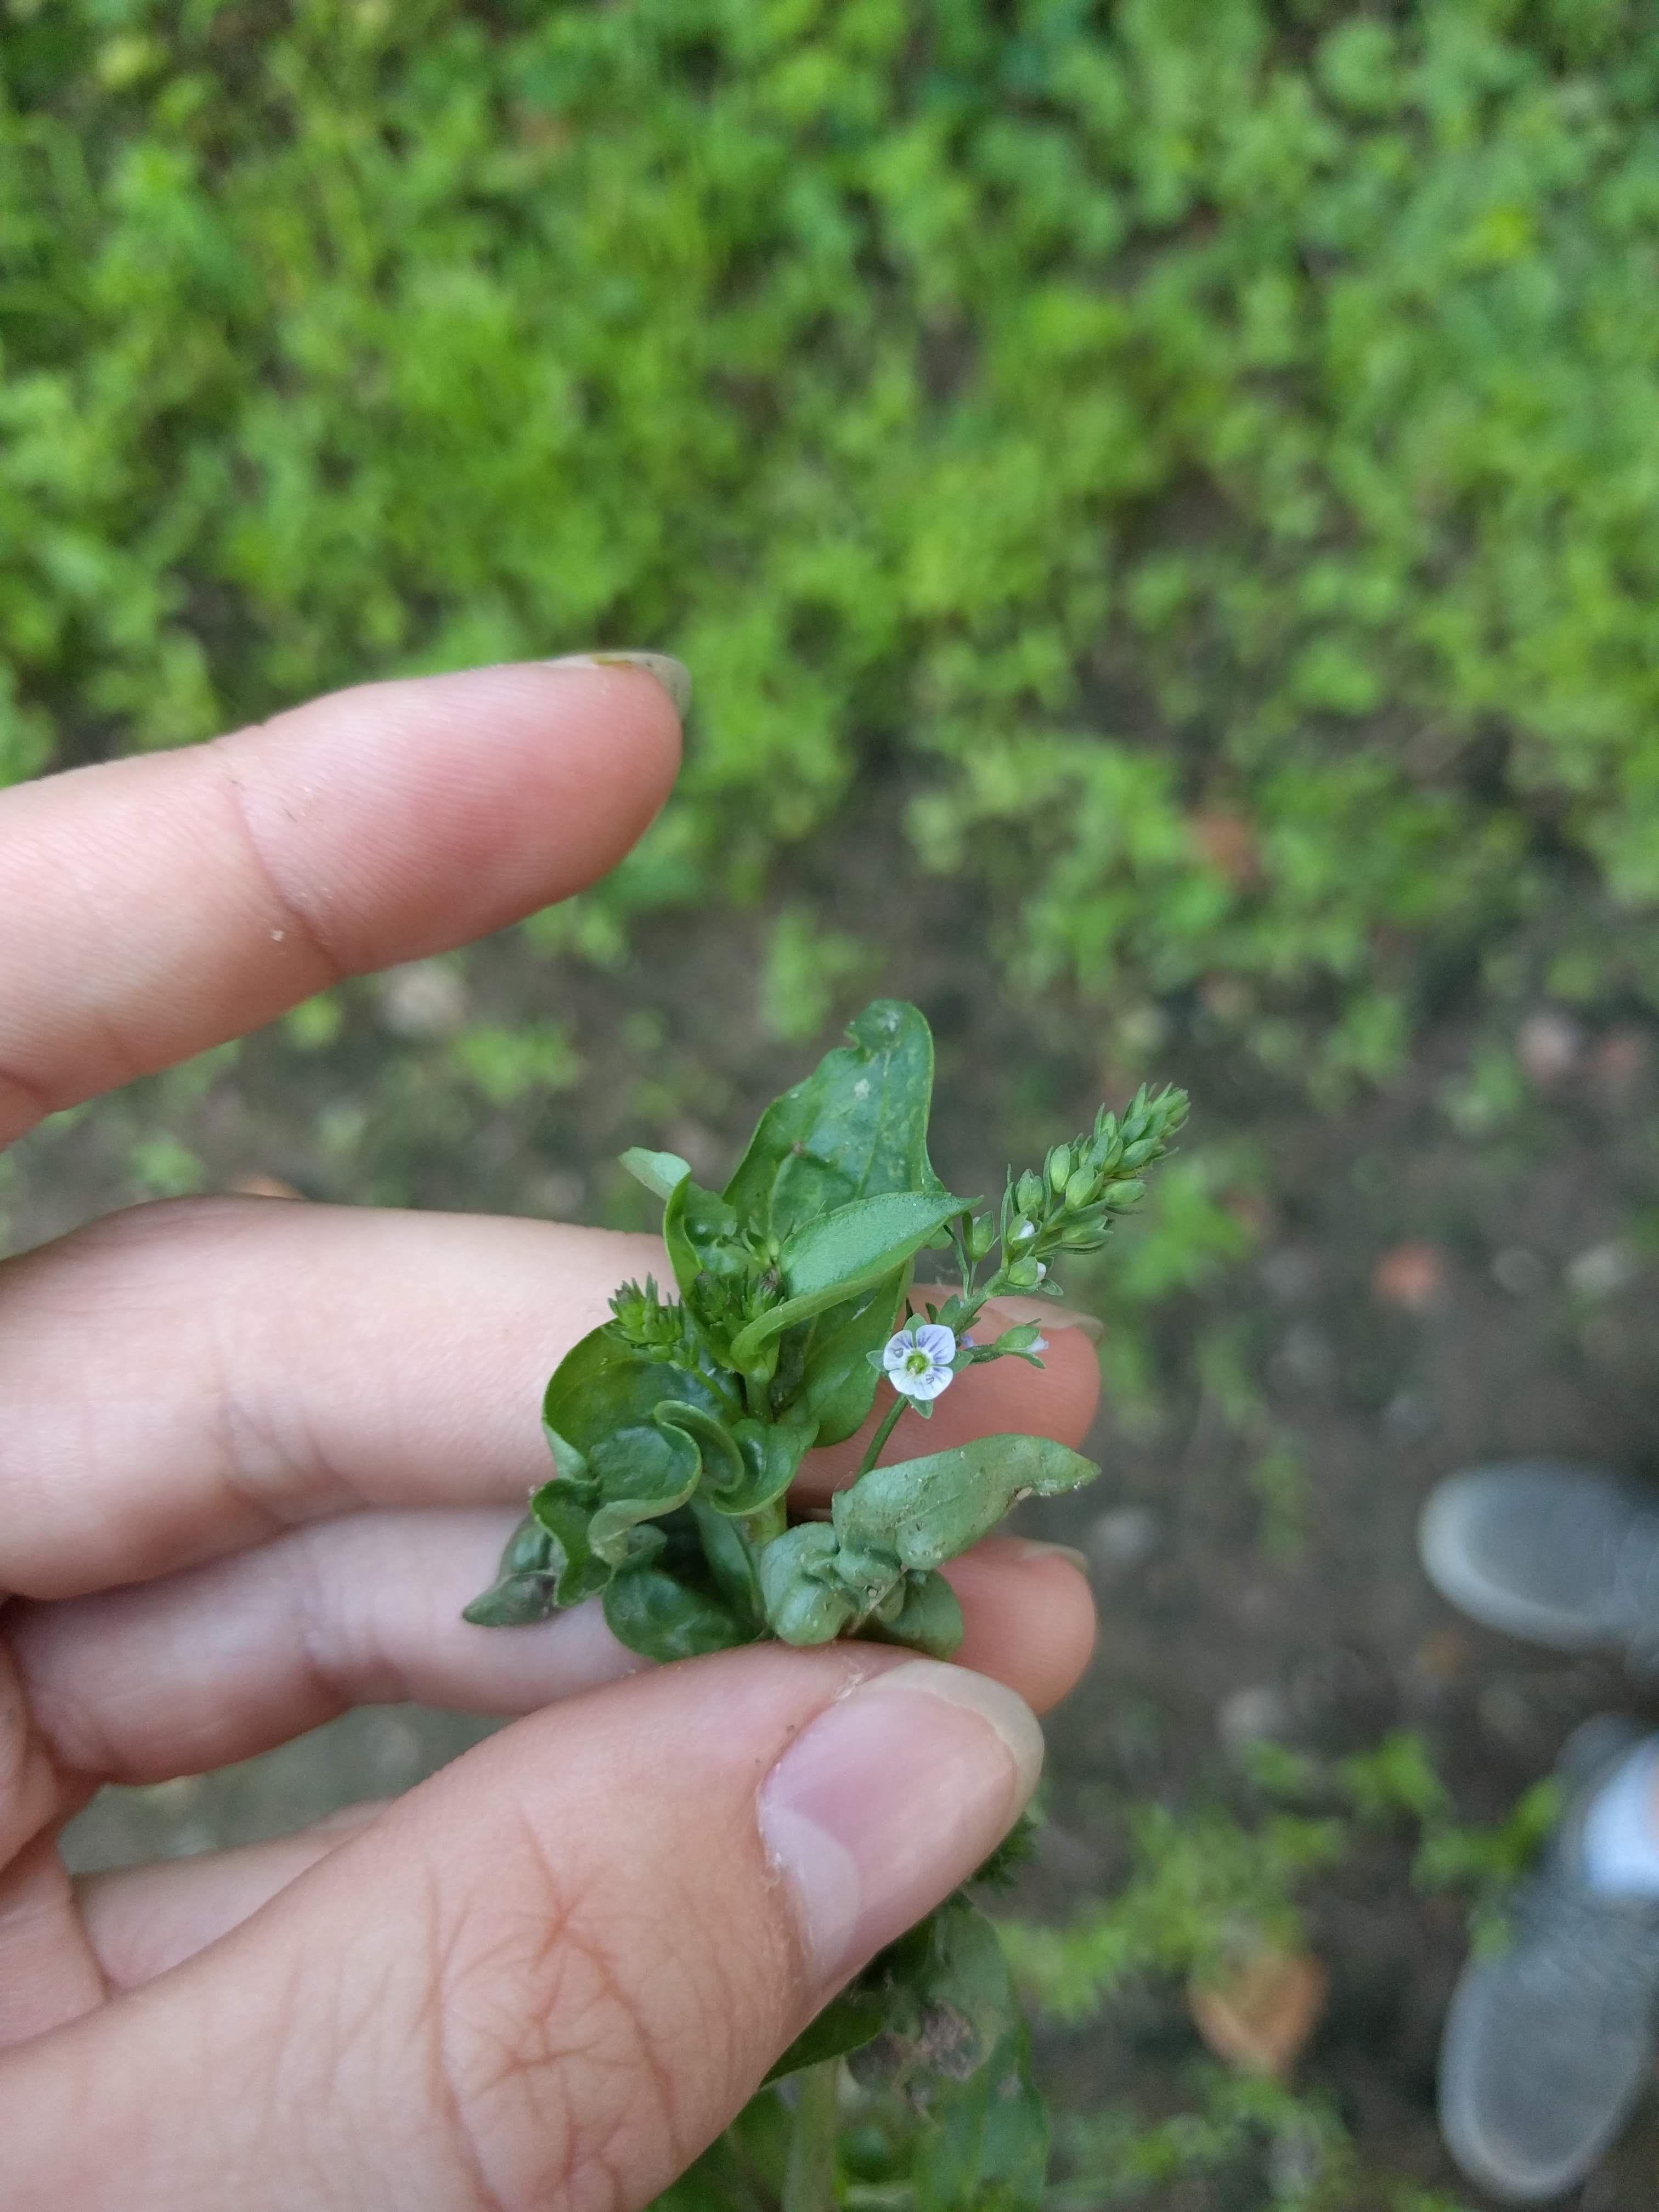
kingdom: Plantae
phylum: Tracheophyta
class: Magnoliopsida
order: Lamiales
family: Plantaginaceae
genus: Veronica
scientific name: Veronica anagallis-aquatica
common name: Water speedwell
